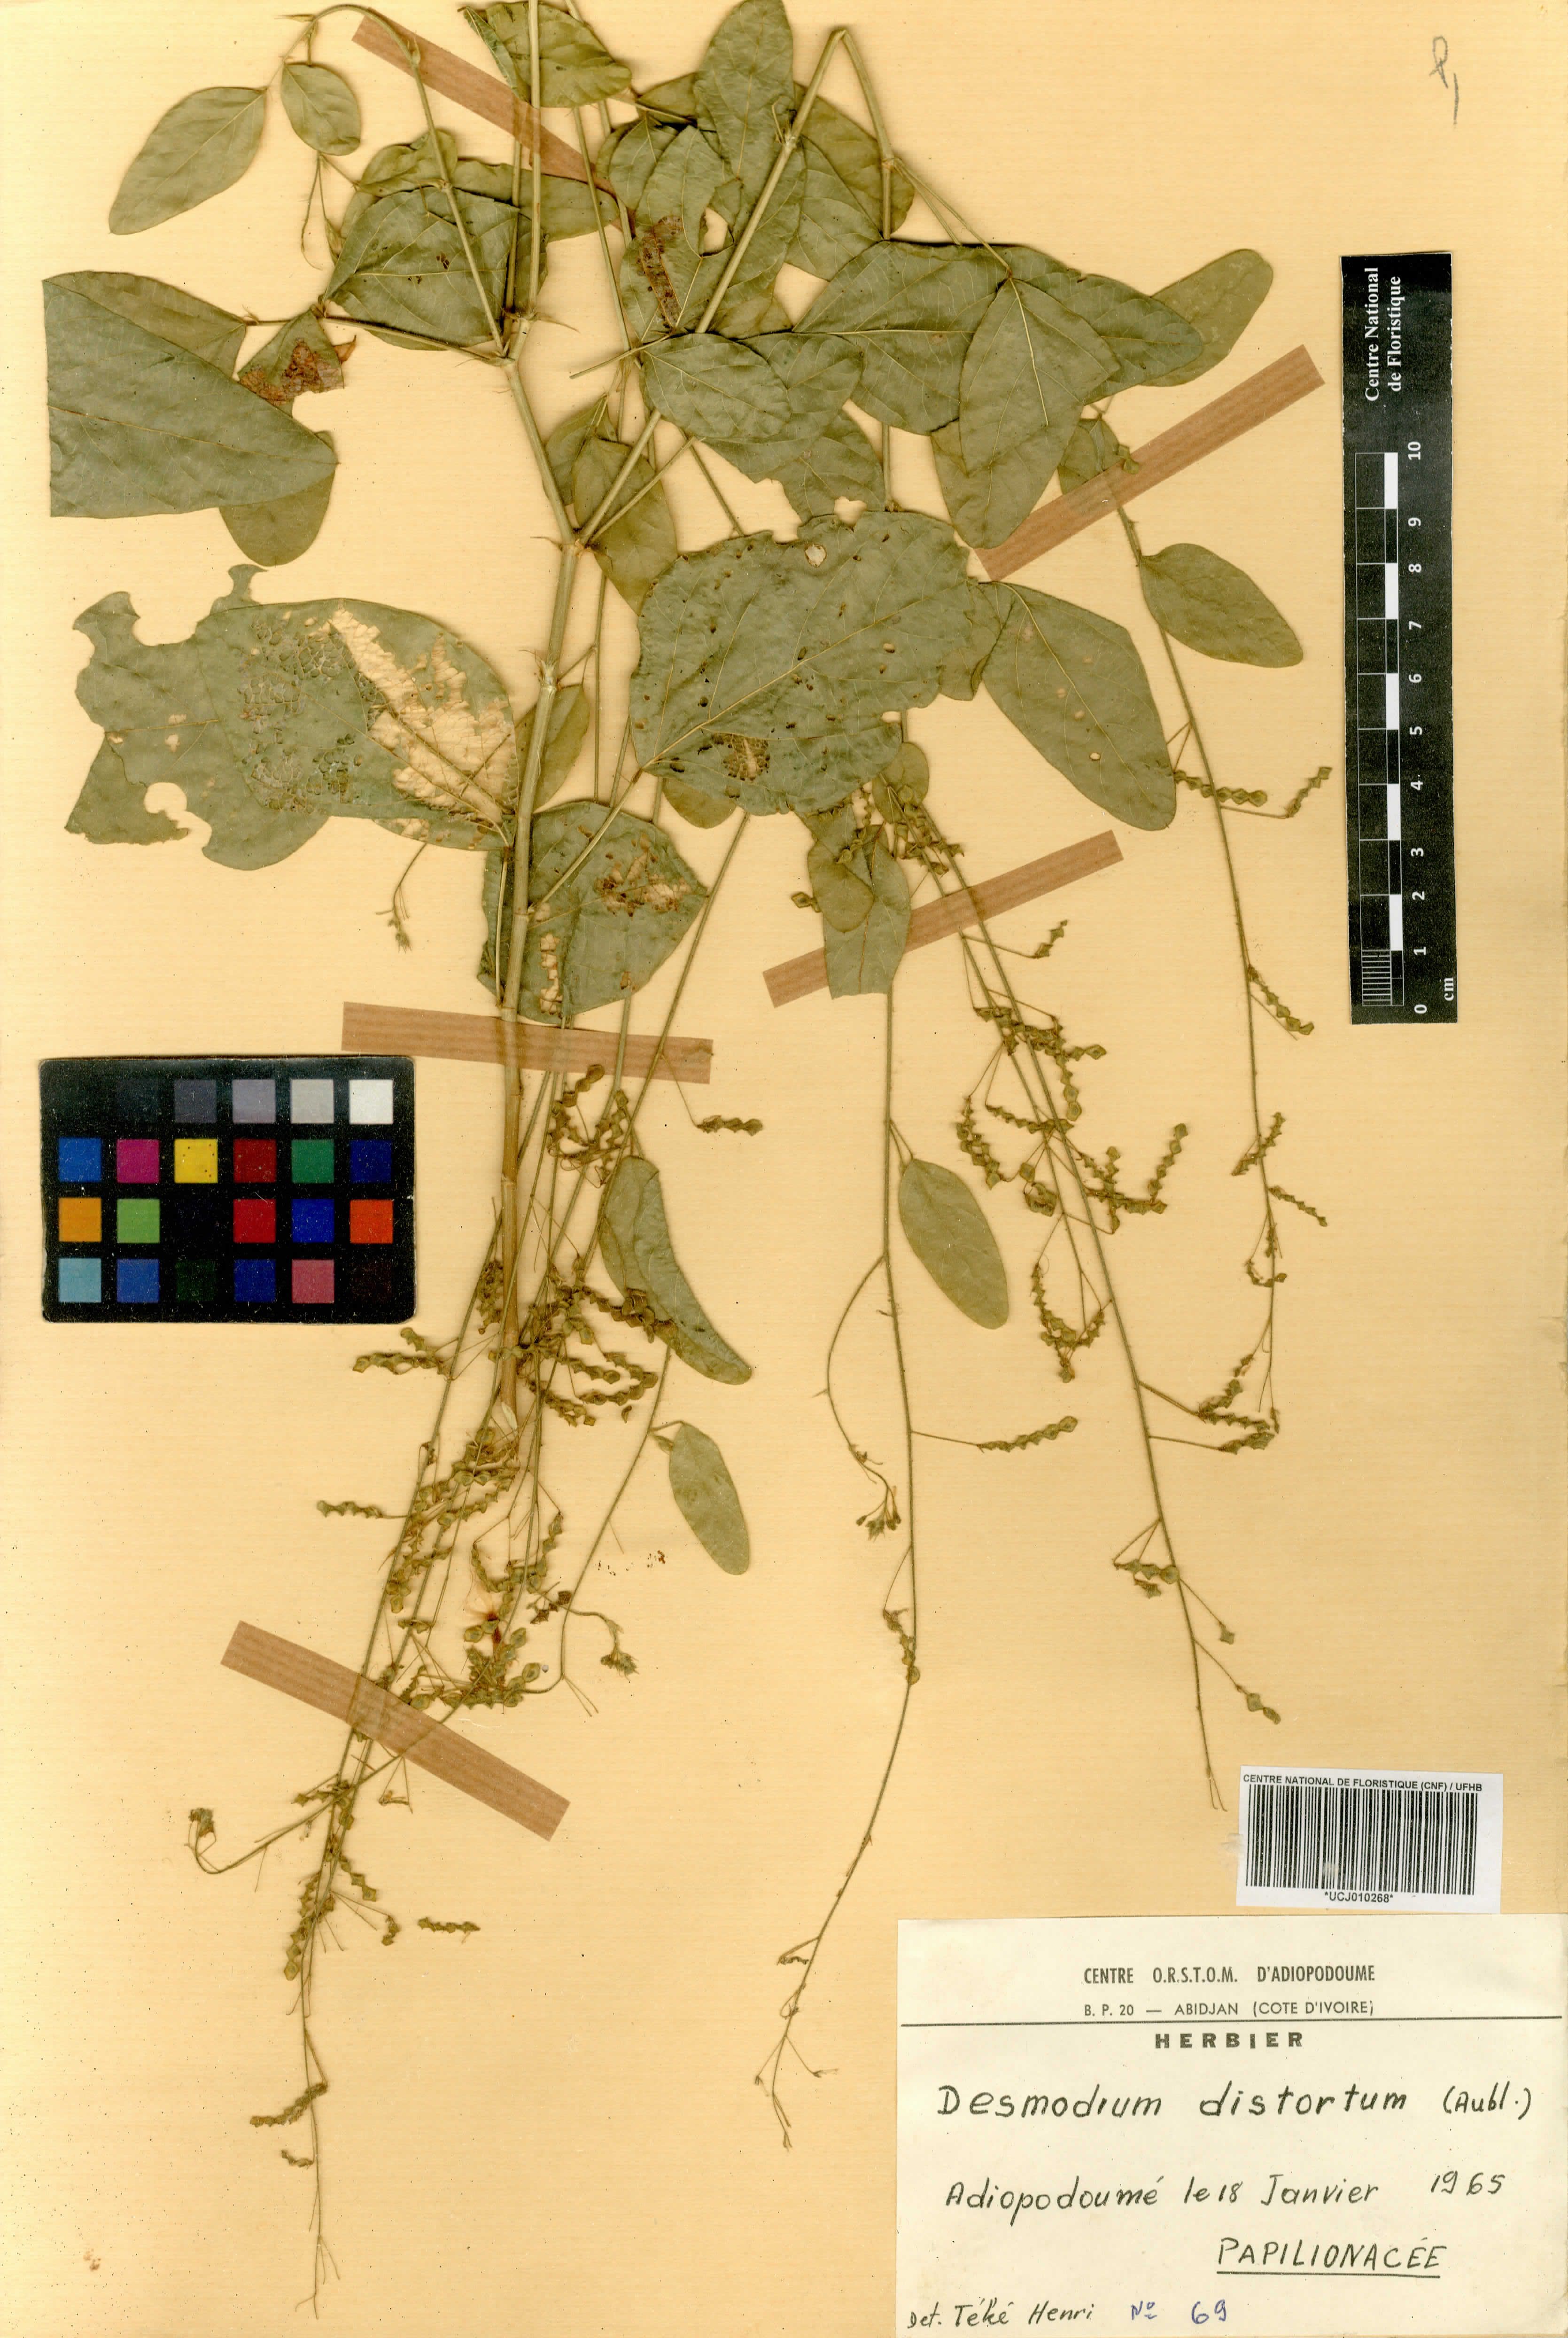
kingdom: Plantae
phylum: Tracheophyta
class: Magnoliopsida
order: Fabales
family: Fabaceae
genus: Desmodium
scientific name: Desmodium distortum
